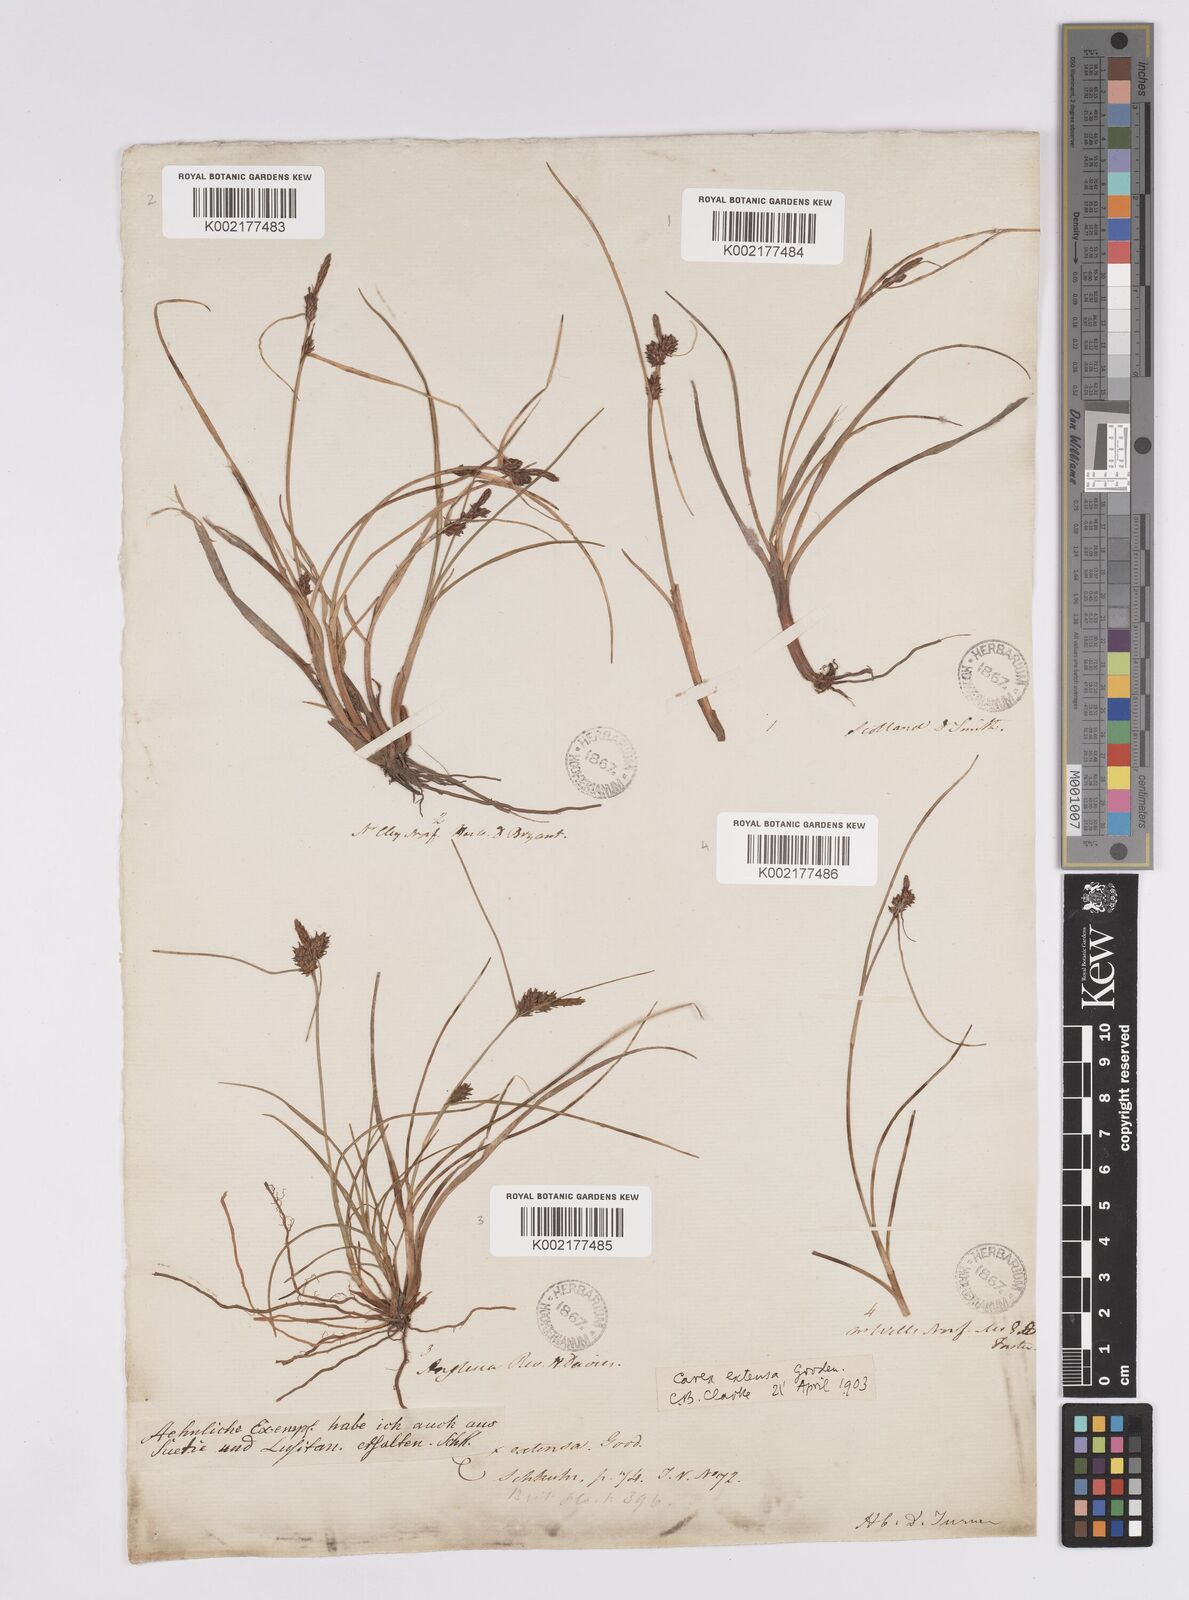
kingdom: Plantae
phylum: Tracheophyta
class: Liliopsida
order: Poales
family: Cyperaceae
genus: Carex
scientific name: Carex extensa
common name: Long-bracted sedge
